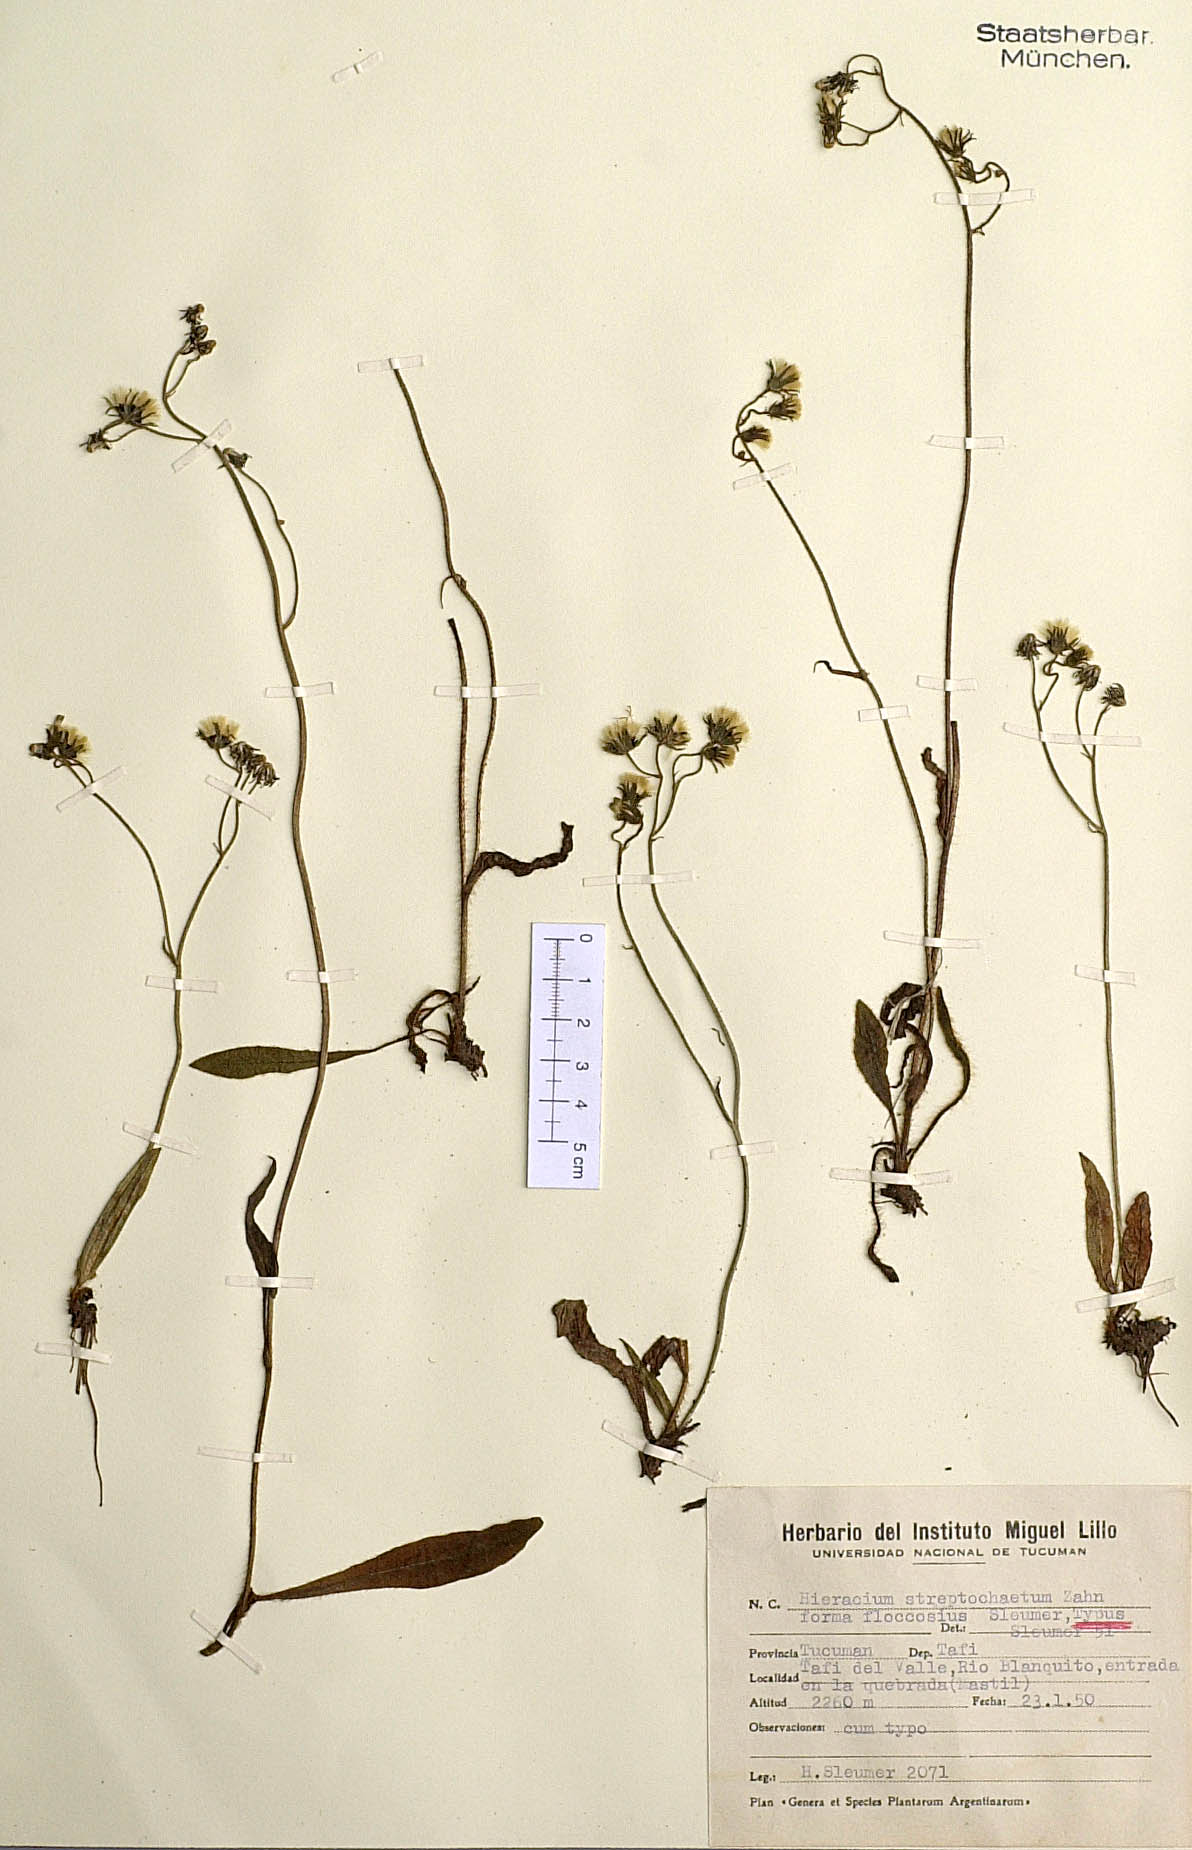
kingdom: Plantae
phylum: Tracheophyta
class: Magnoliopsida
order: Asterales
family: Asteraceae
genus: Hieracium
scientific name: Hieracium streptochaetum
